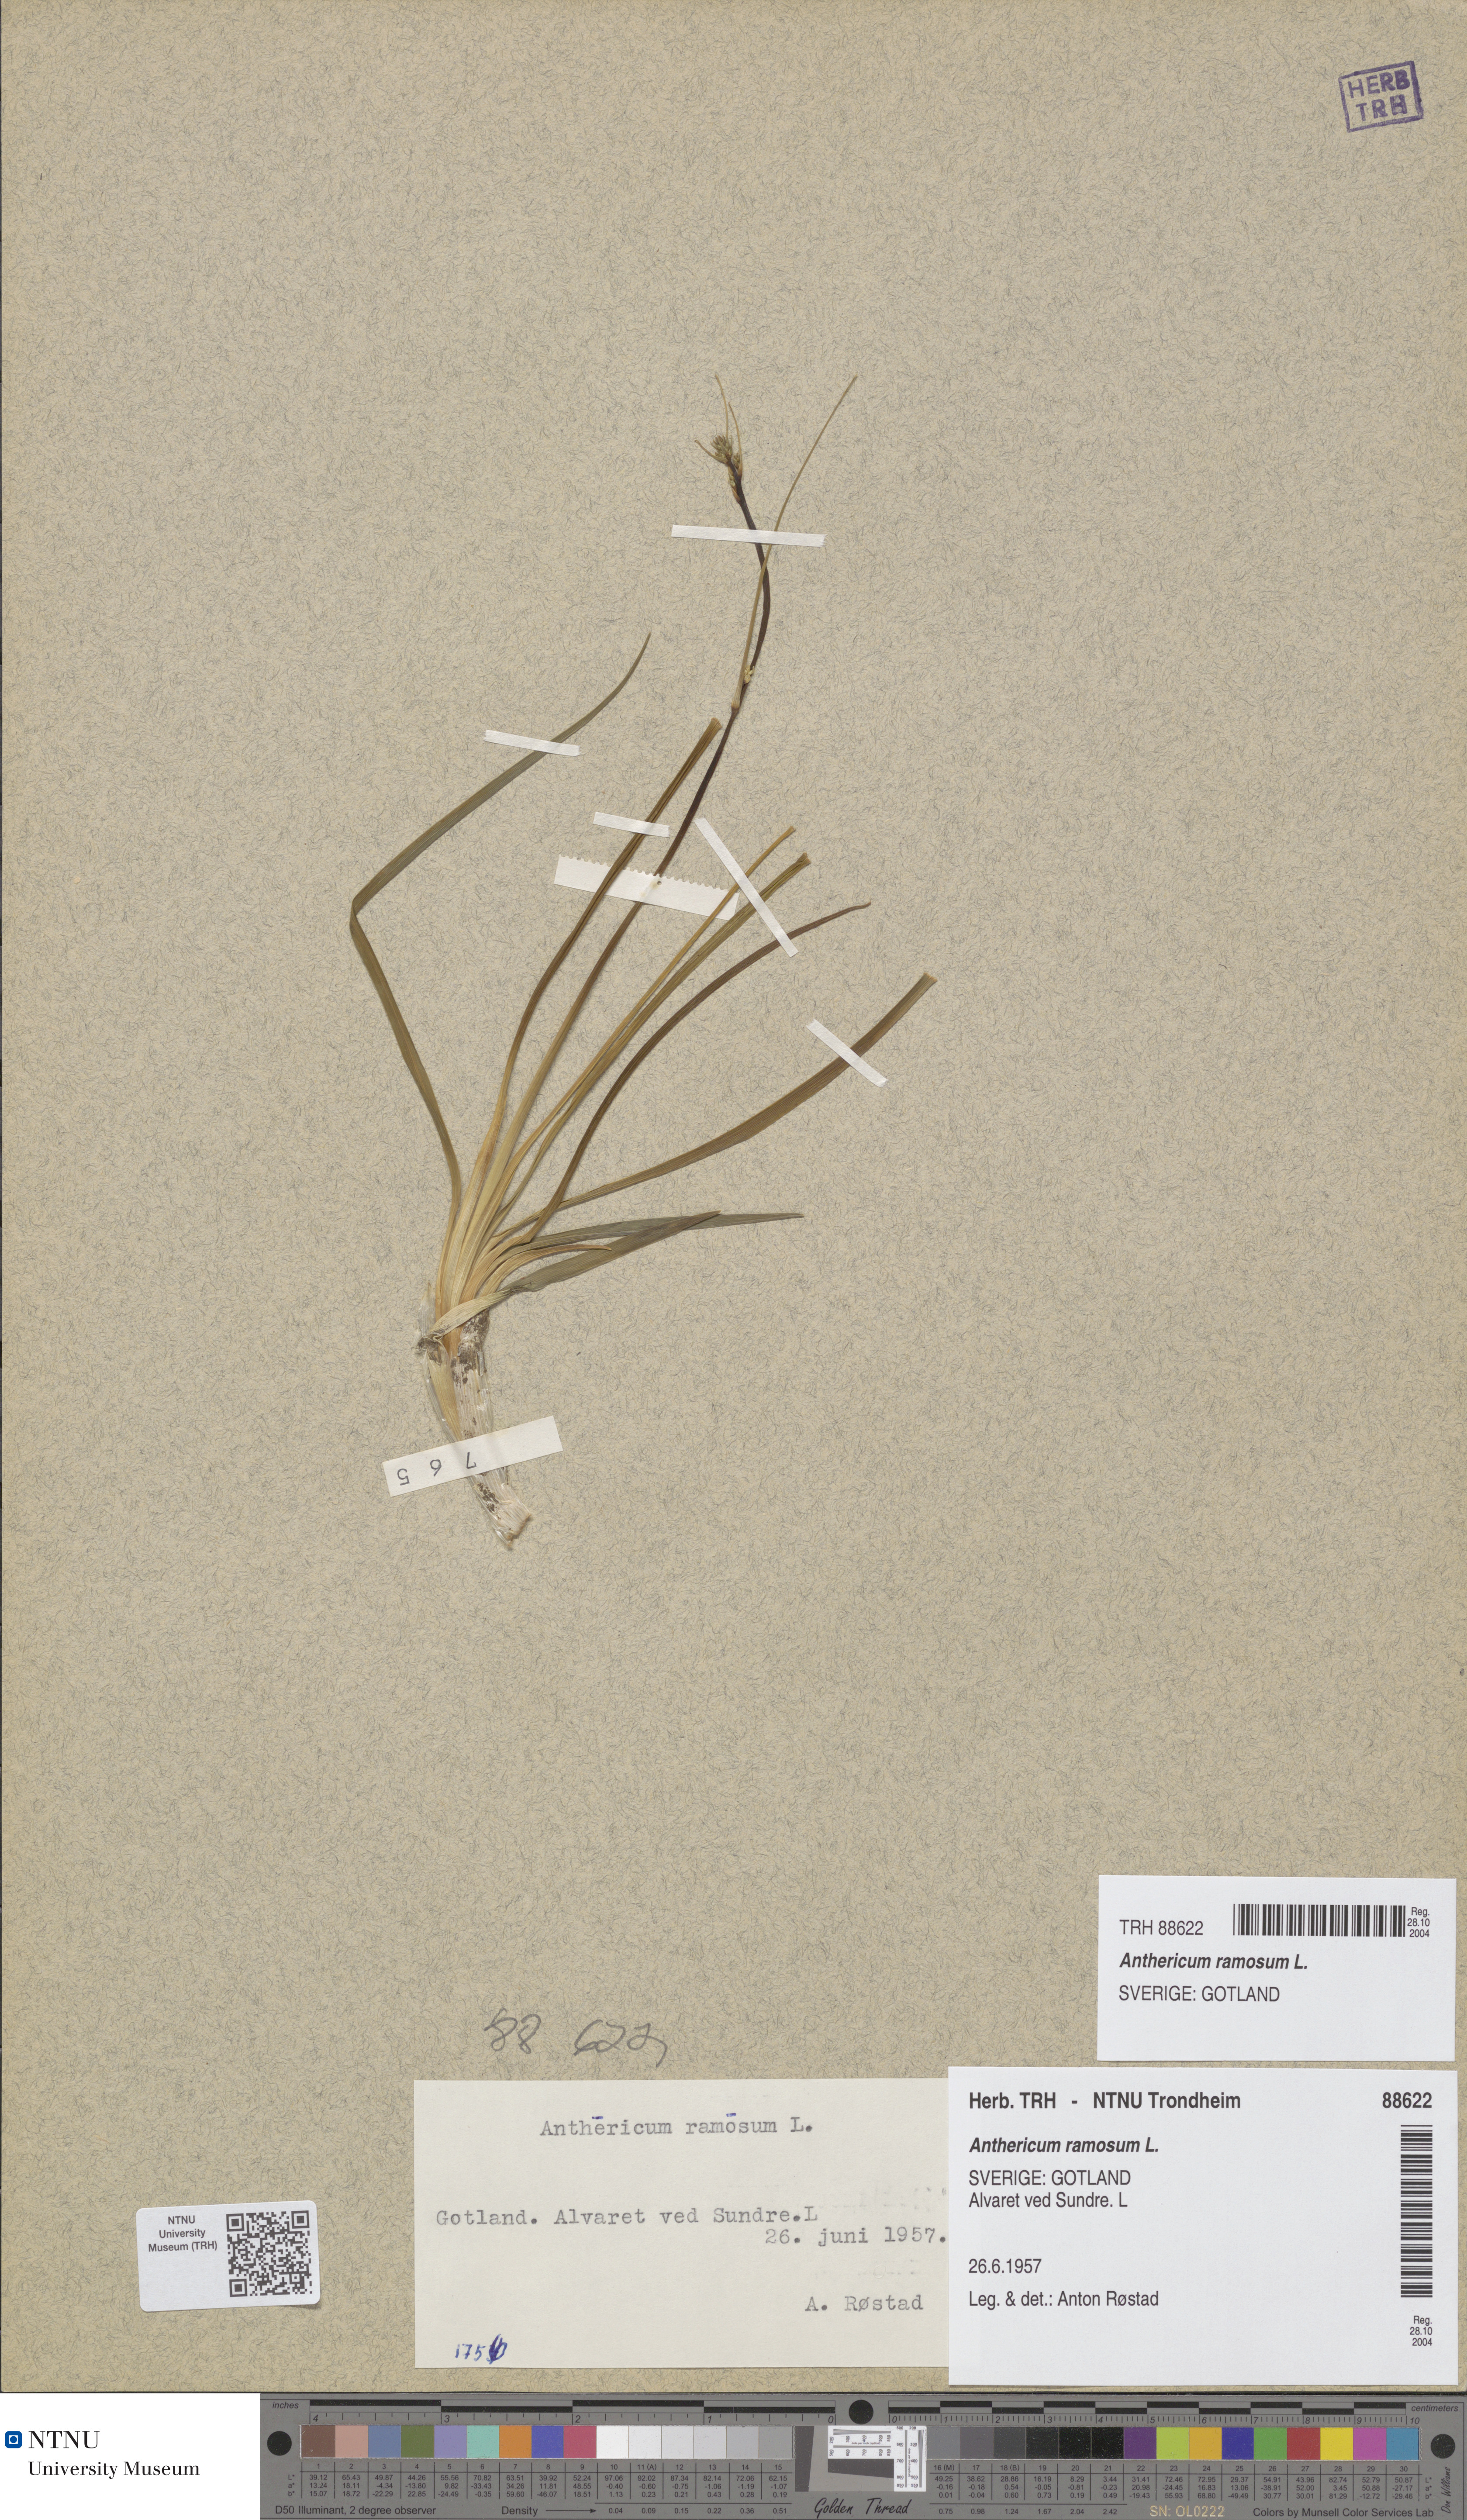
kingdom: Plantae
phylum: Tracheophyta
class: Liliopsida
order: Asparagales
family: Asparagaceae
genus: Anthericum
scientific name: Anthericum ramosum
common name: Branched st. bernard's-lily
